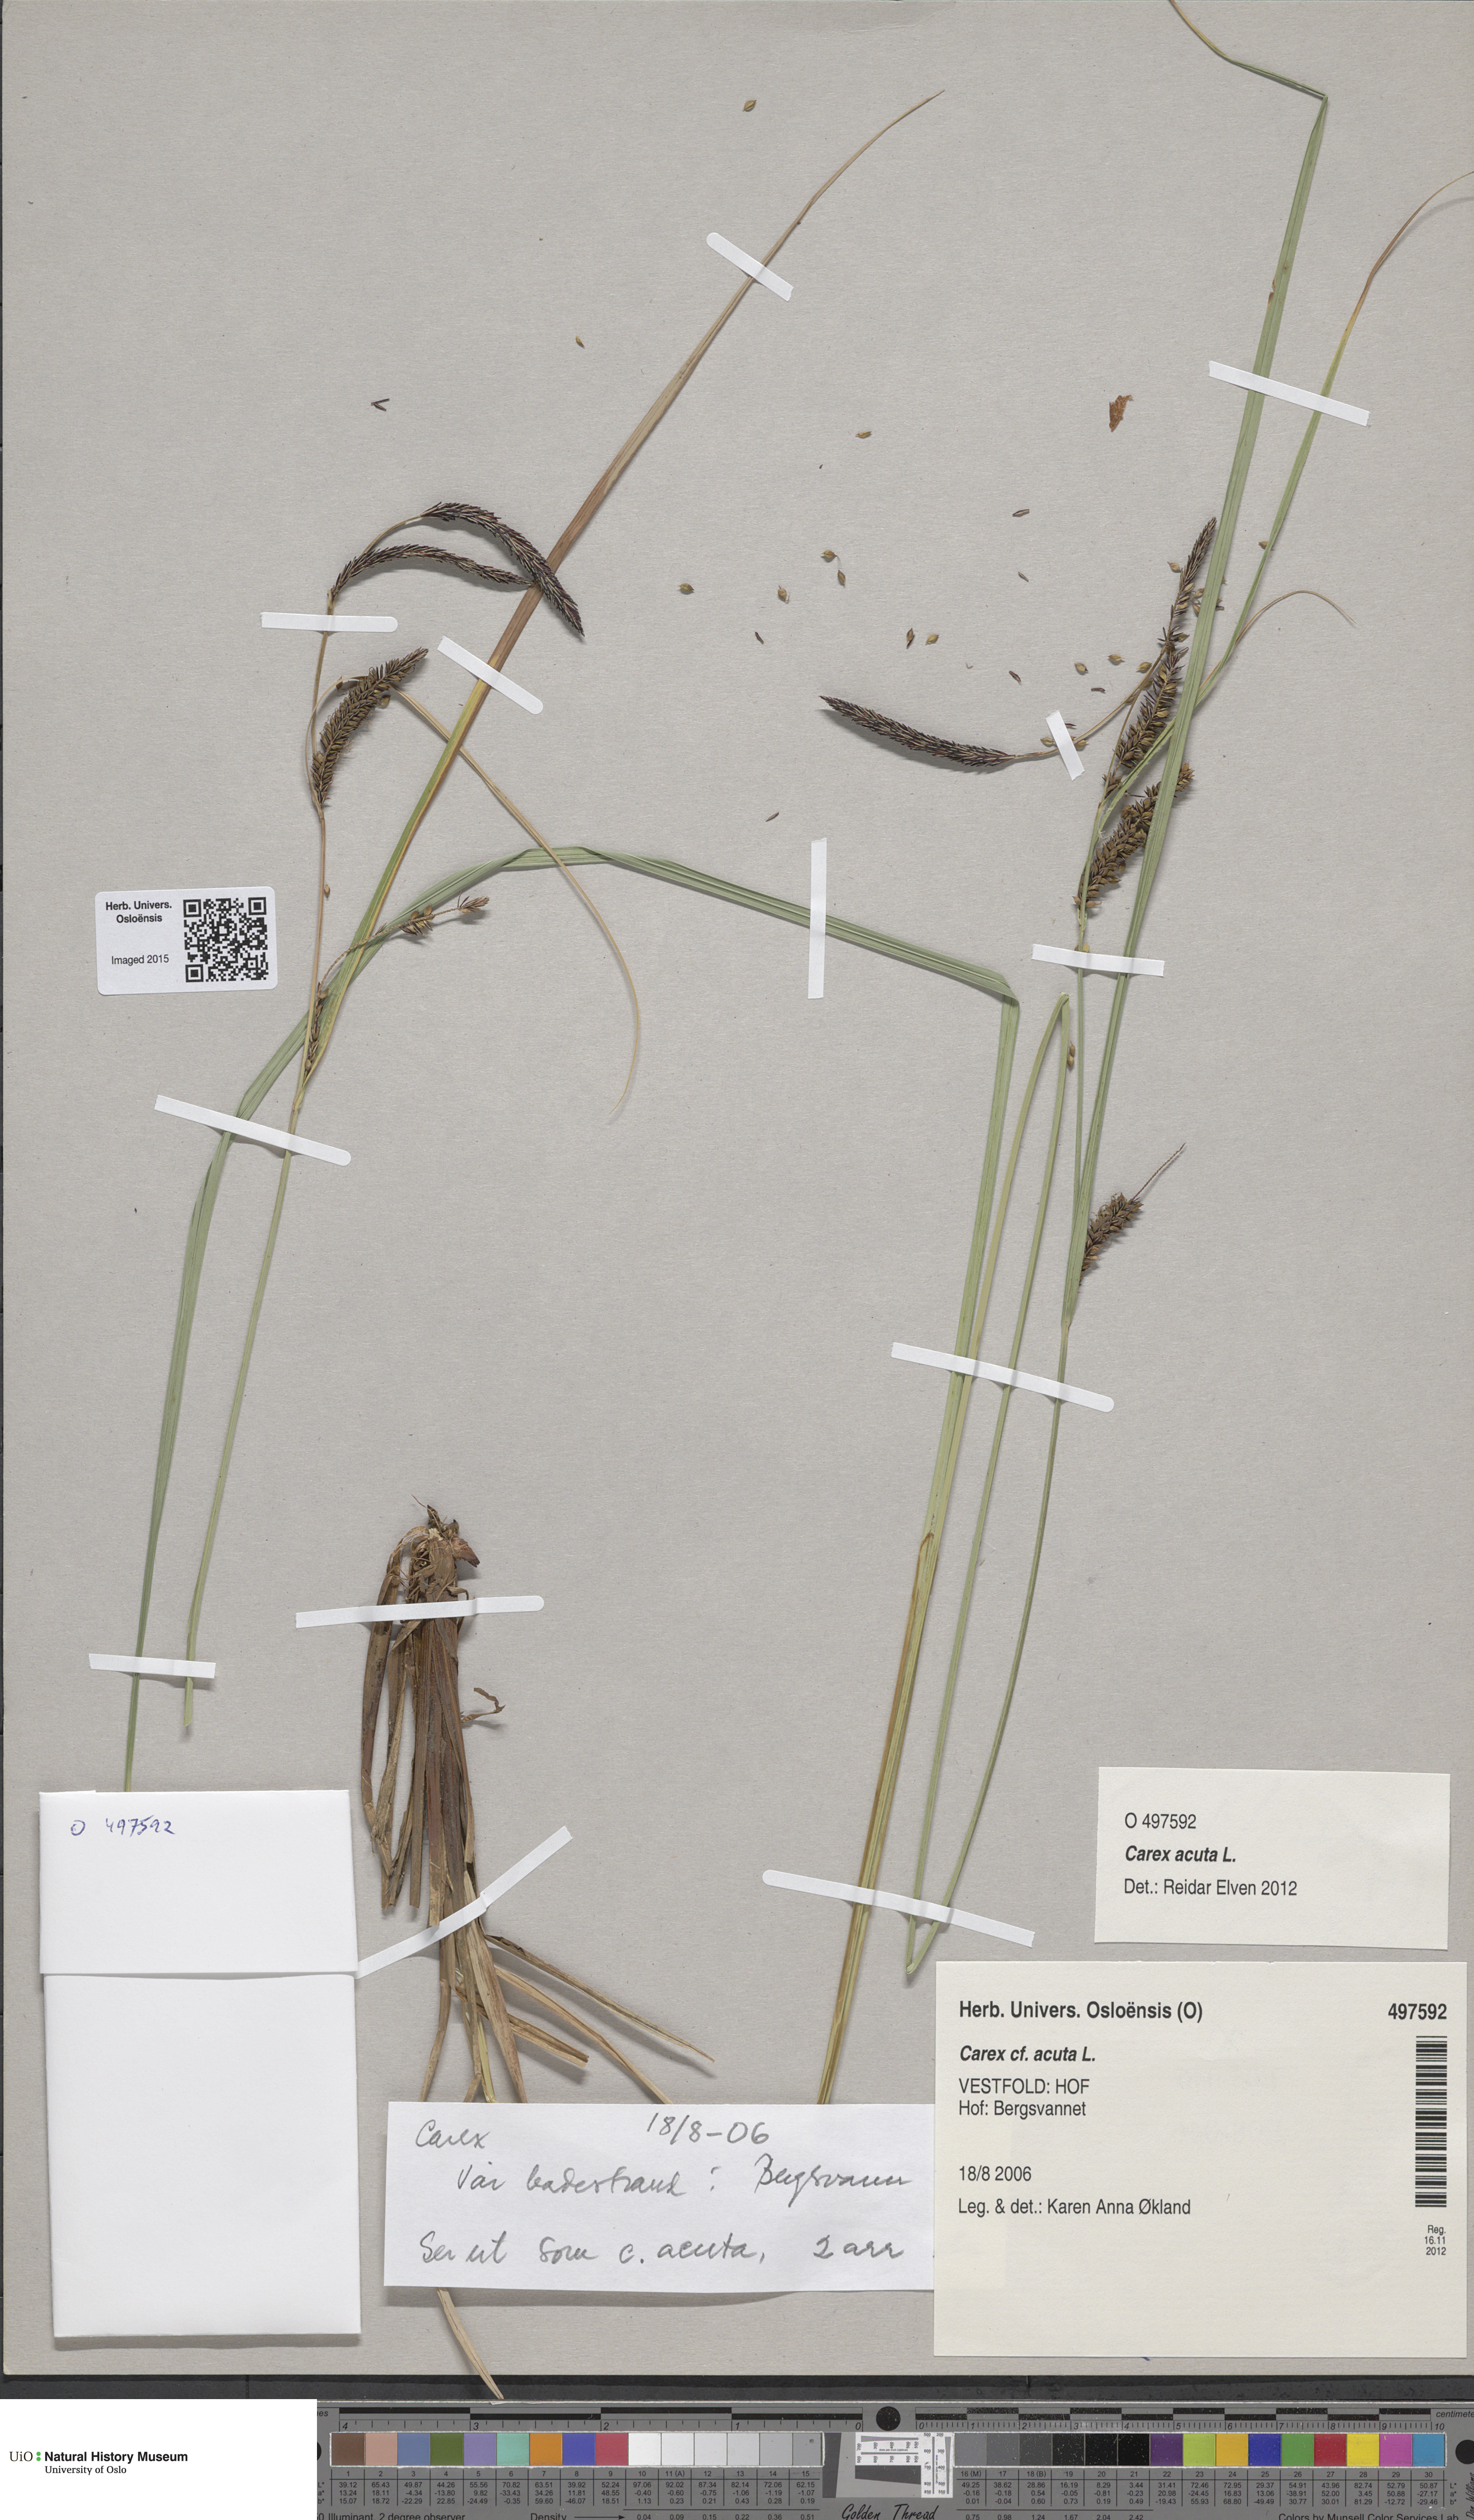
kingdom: Plantae
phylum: Tracheophyta
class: Liliopsida
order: Poales
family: Cyperaceae
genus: Carex
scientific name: Carex acuta
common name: Slender tufted-sedge
